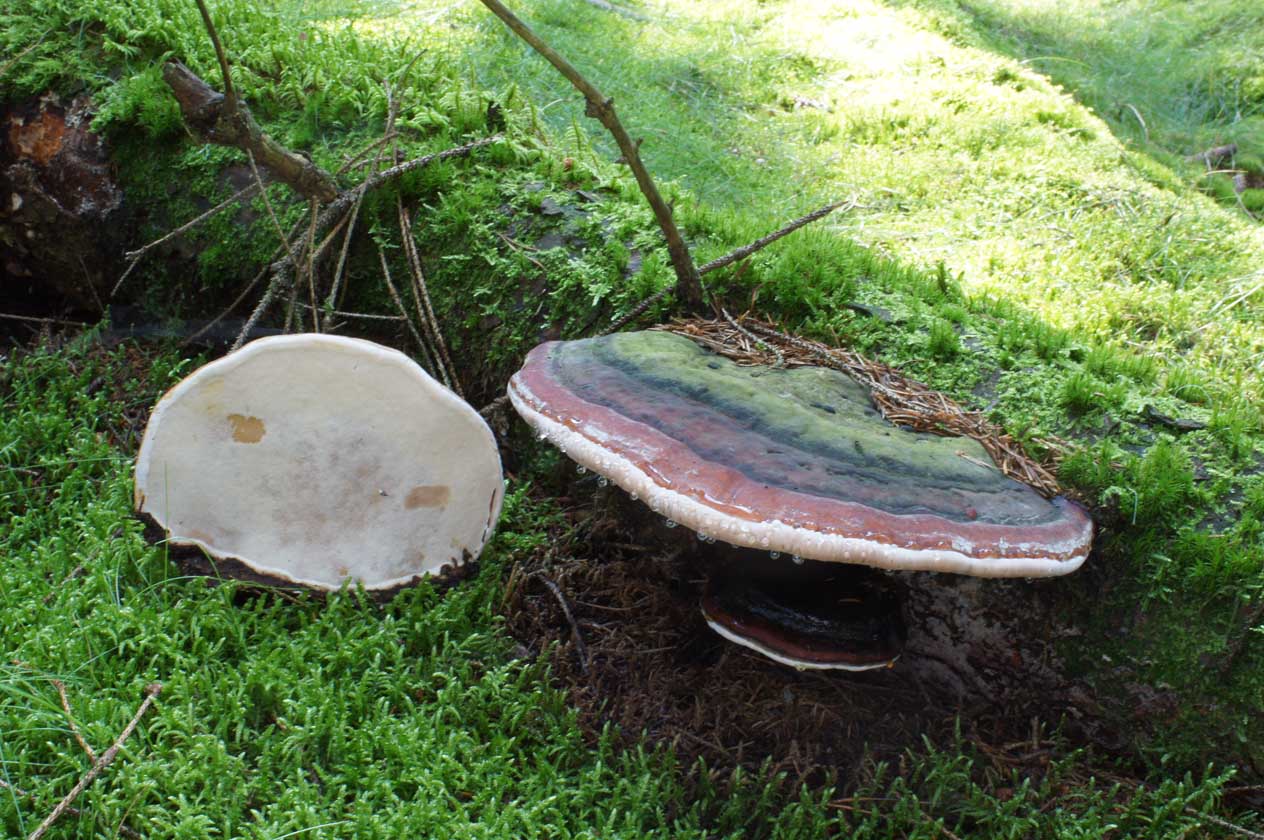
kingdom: Fungi
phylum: Basidiomycota
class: Agaricomycetes
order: Polyporales
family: Fomitopsidaceae
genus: Fomitopsis
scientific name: Fomitopsis pinicola
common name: randbæltet hovporesvamp
